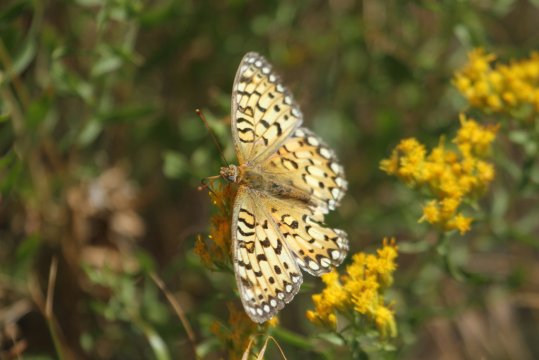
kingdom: Animalia
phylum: Arthropoda
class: Insecta
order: Lepidoptera
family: Nymphalidae
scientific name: Nymphalidae
